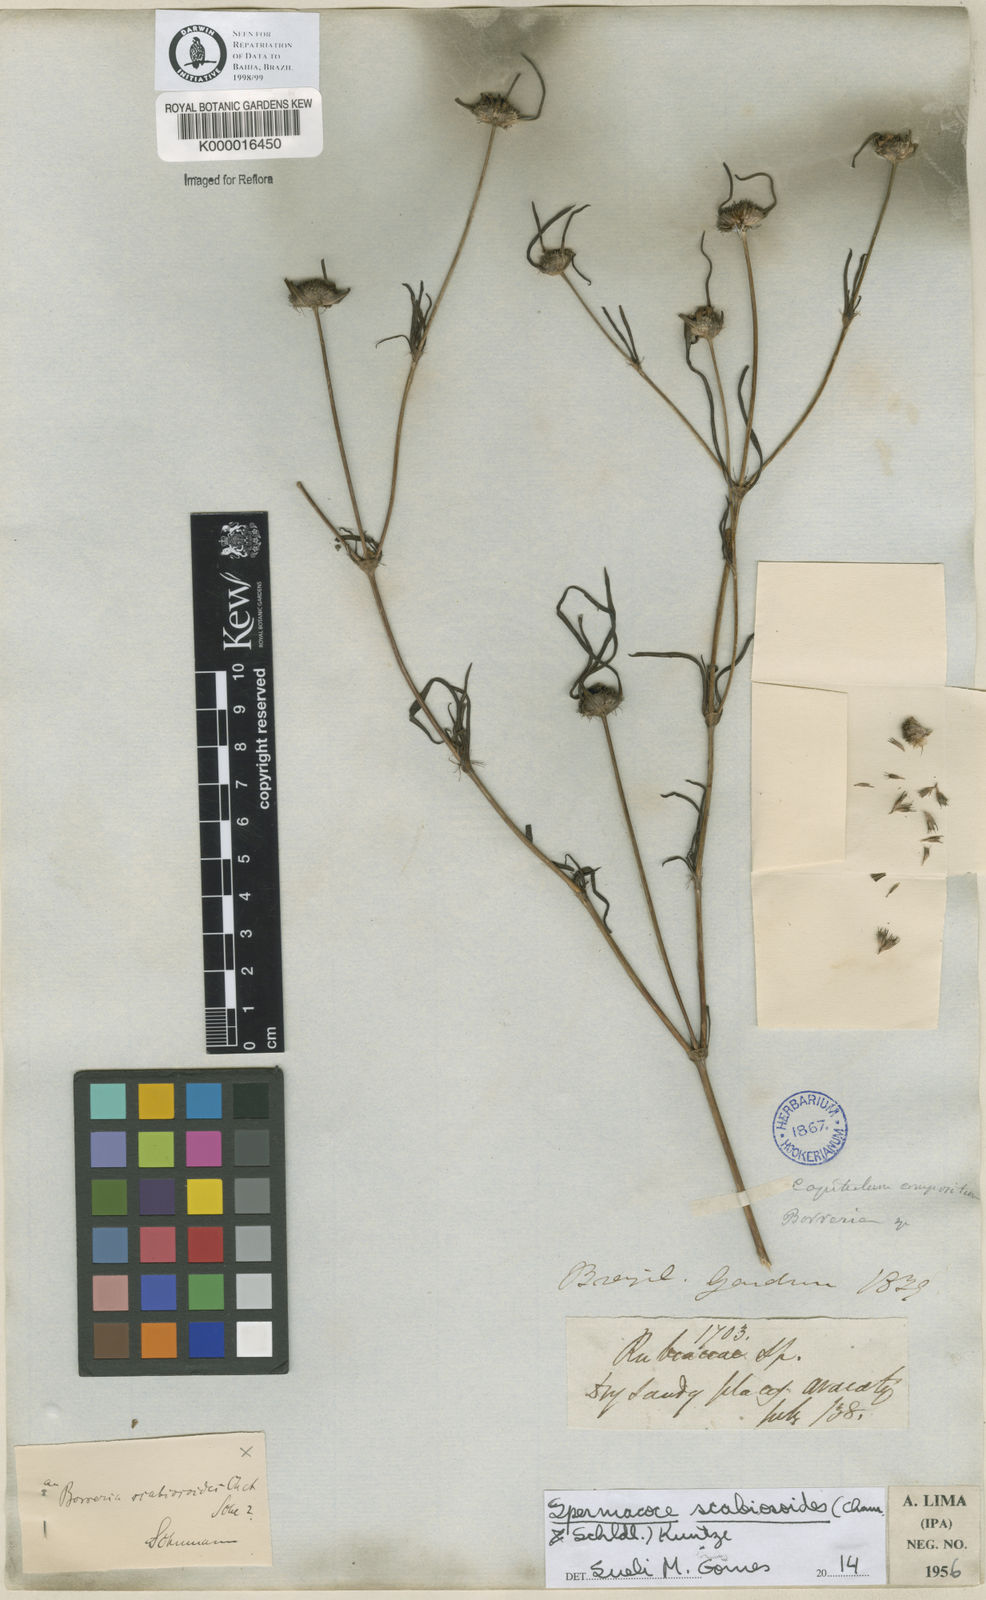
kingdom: Plantae
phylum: Tracheophyta
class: Magnoliopsida
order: Gentianales
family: Rubiaceae
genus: Spermacoce
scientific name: Spermacoce scabiosoides
